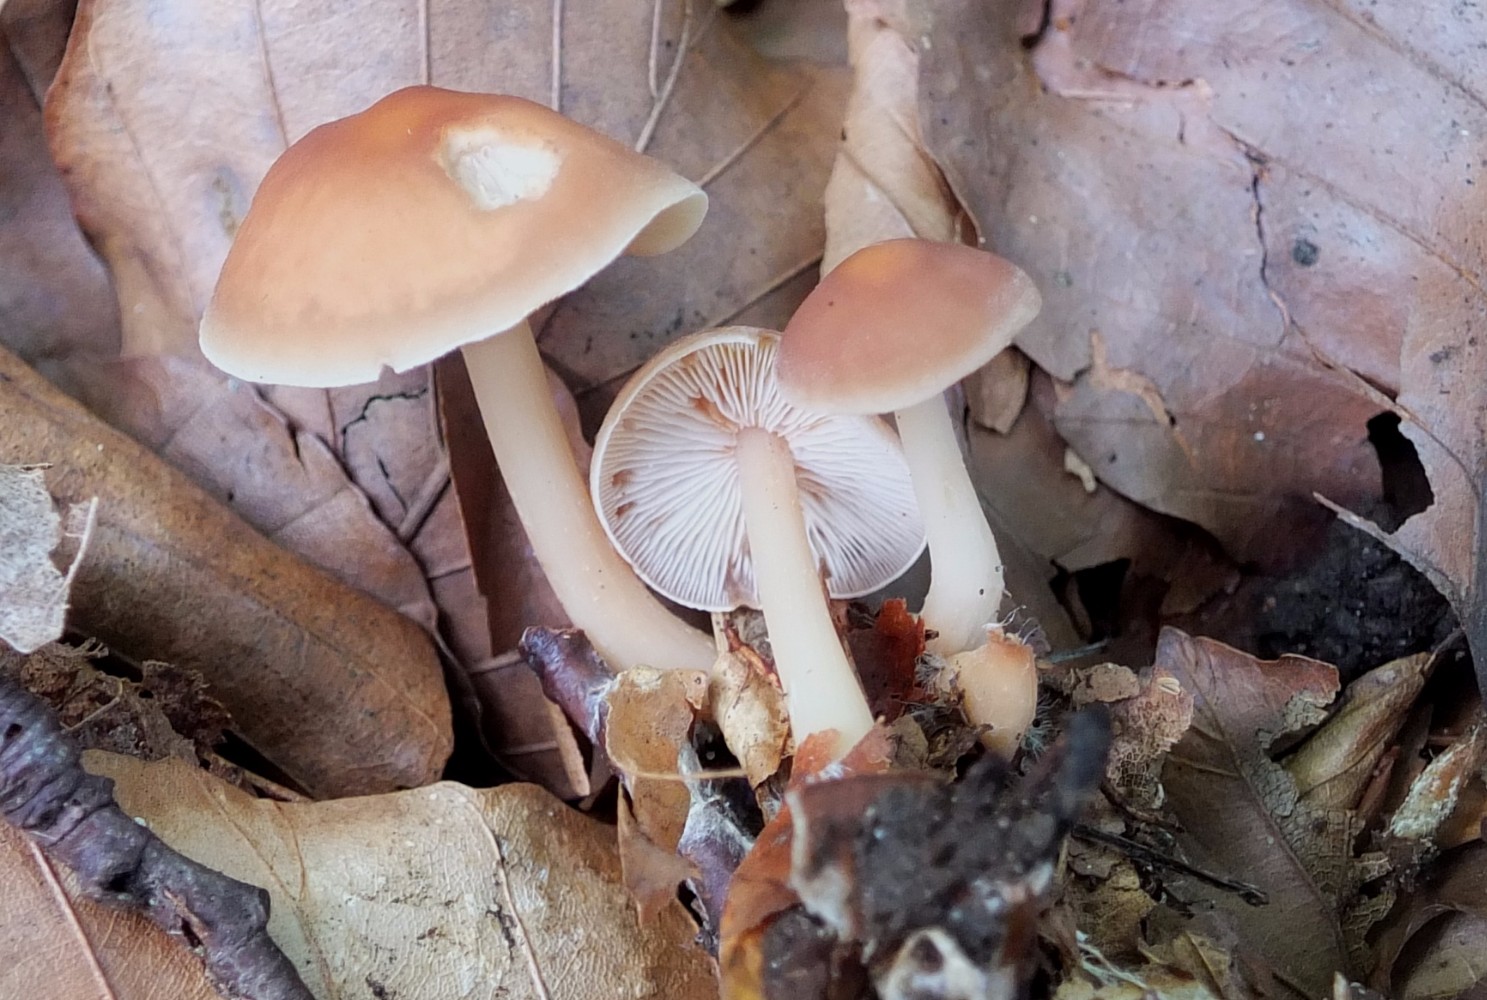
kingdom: Fungi
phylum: Basidiomycota
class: Agaricomycetes
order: Agaricales
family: Omphalotaceae
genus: Gymnopus
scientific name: Gymnopus ocior
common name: mørk fladhat
